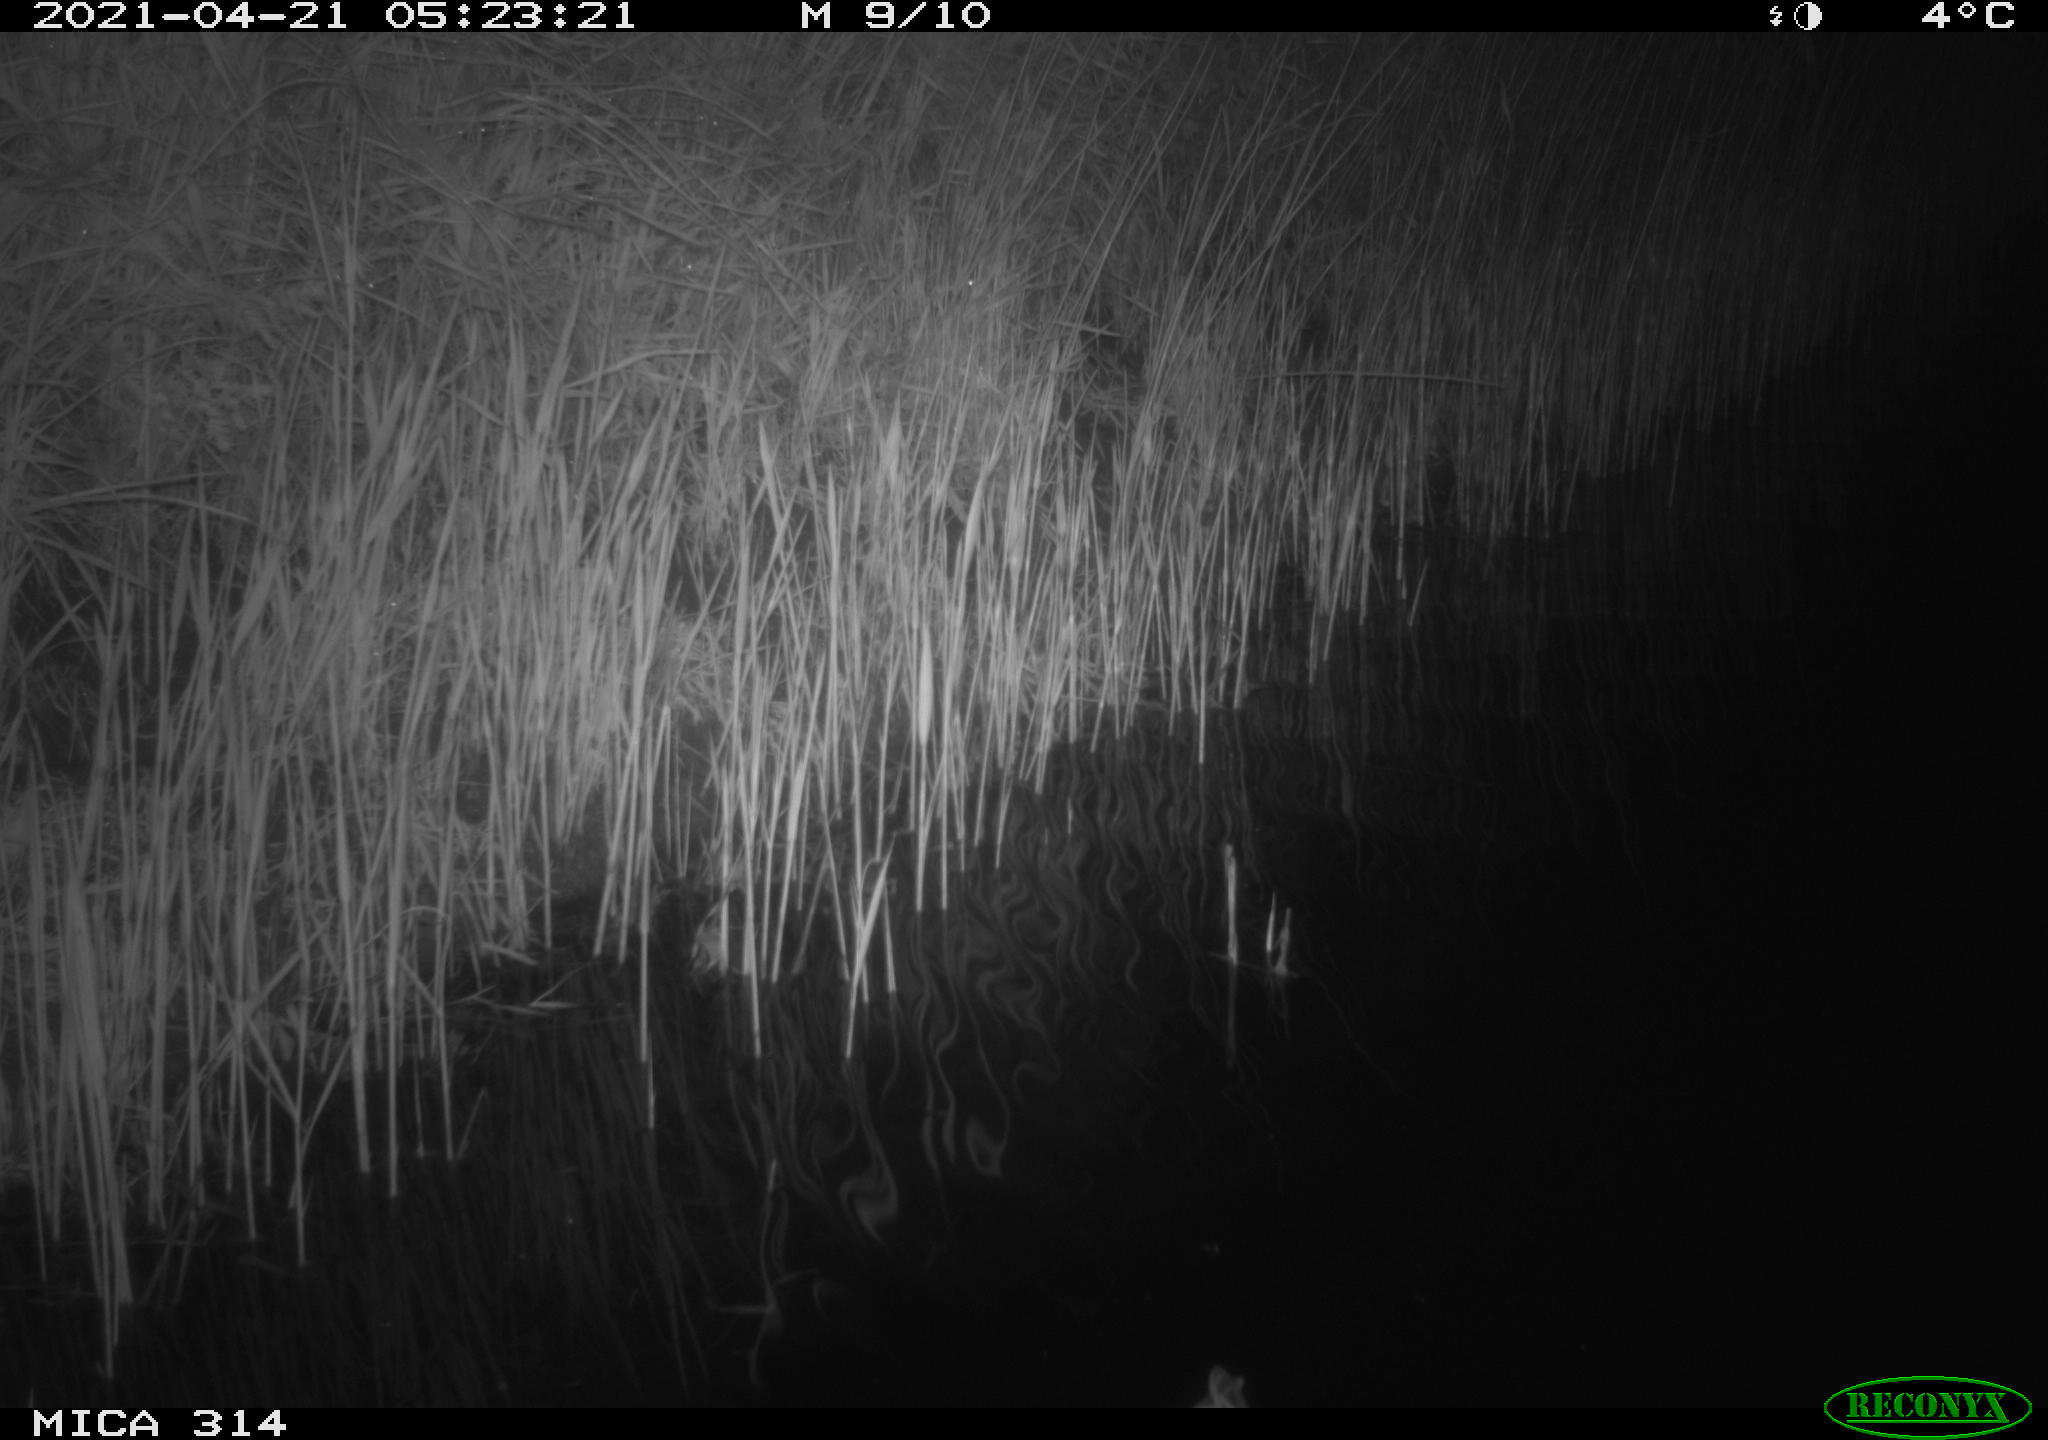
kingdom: Animalia
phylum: Chordata
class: Aves
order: Anseriformes
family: Anatidae
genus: Anas
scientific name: Anas platyrhynchos
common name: Mallard
